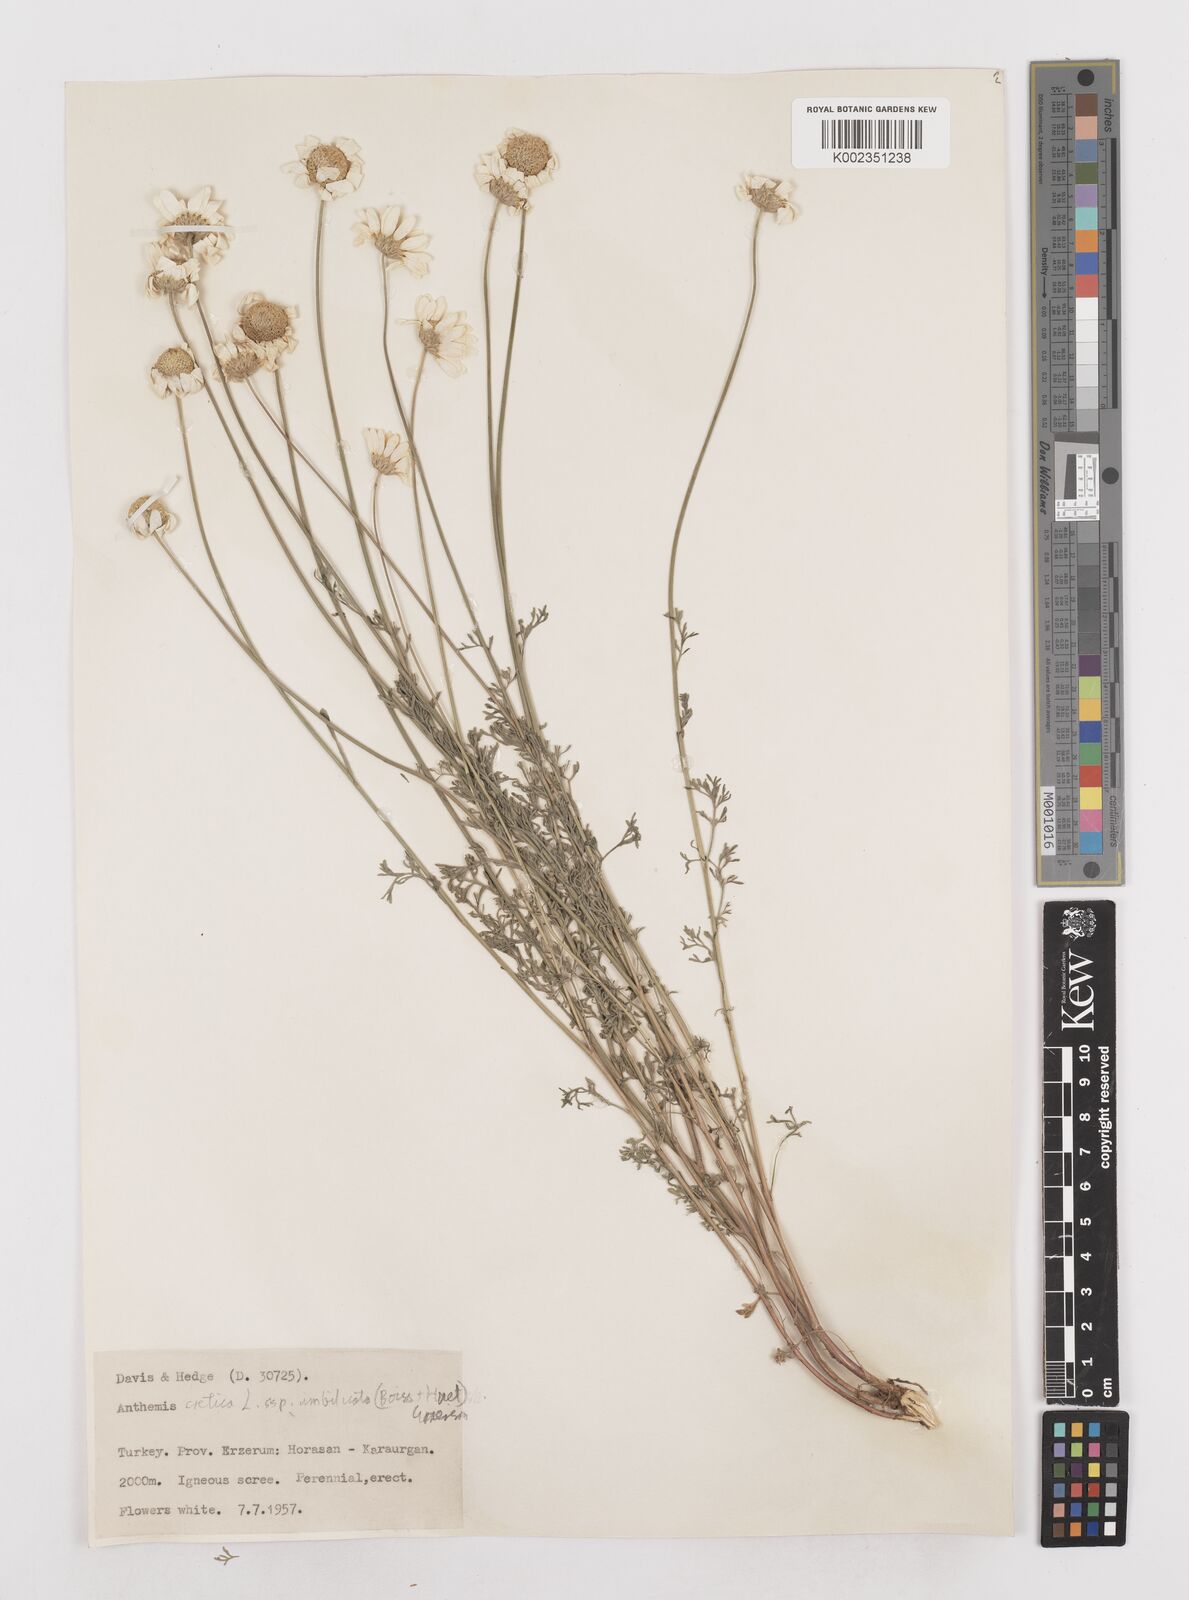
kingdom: Plantae
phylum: Tracheophyta
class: Magnoliopsida
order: Asterales
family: Asteraceae
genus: Anthemis
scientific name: Anthemis cretica
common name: Mountain dog-daisy
